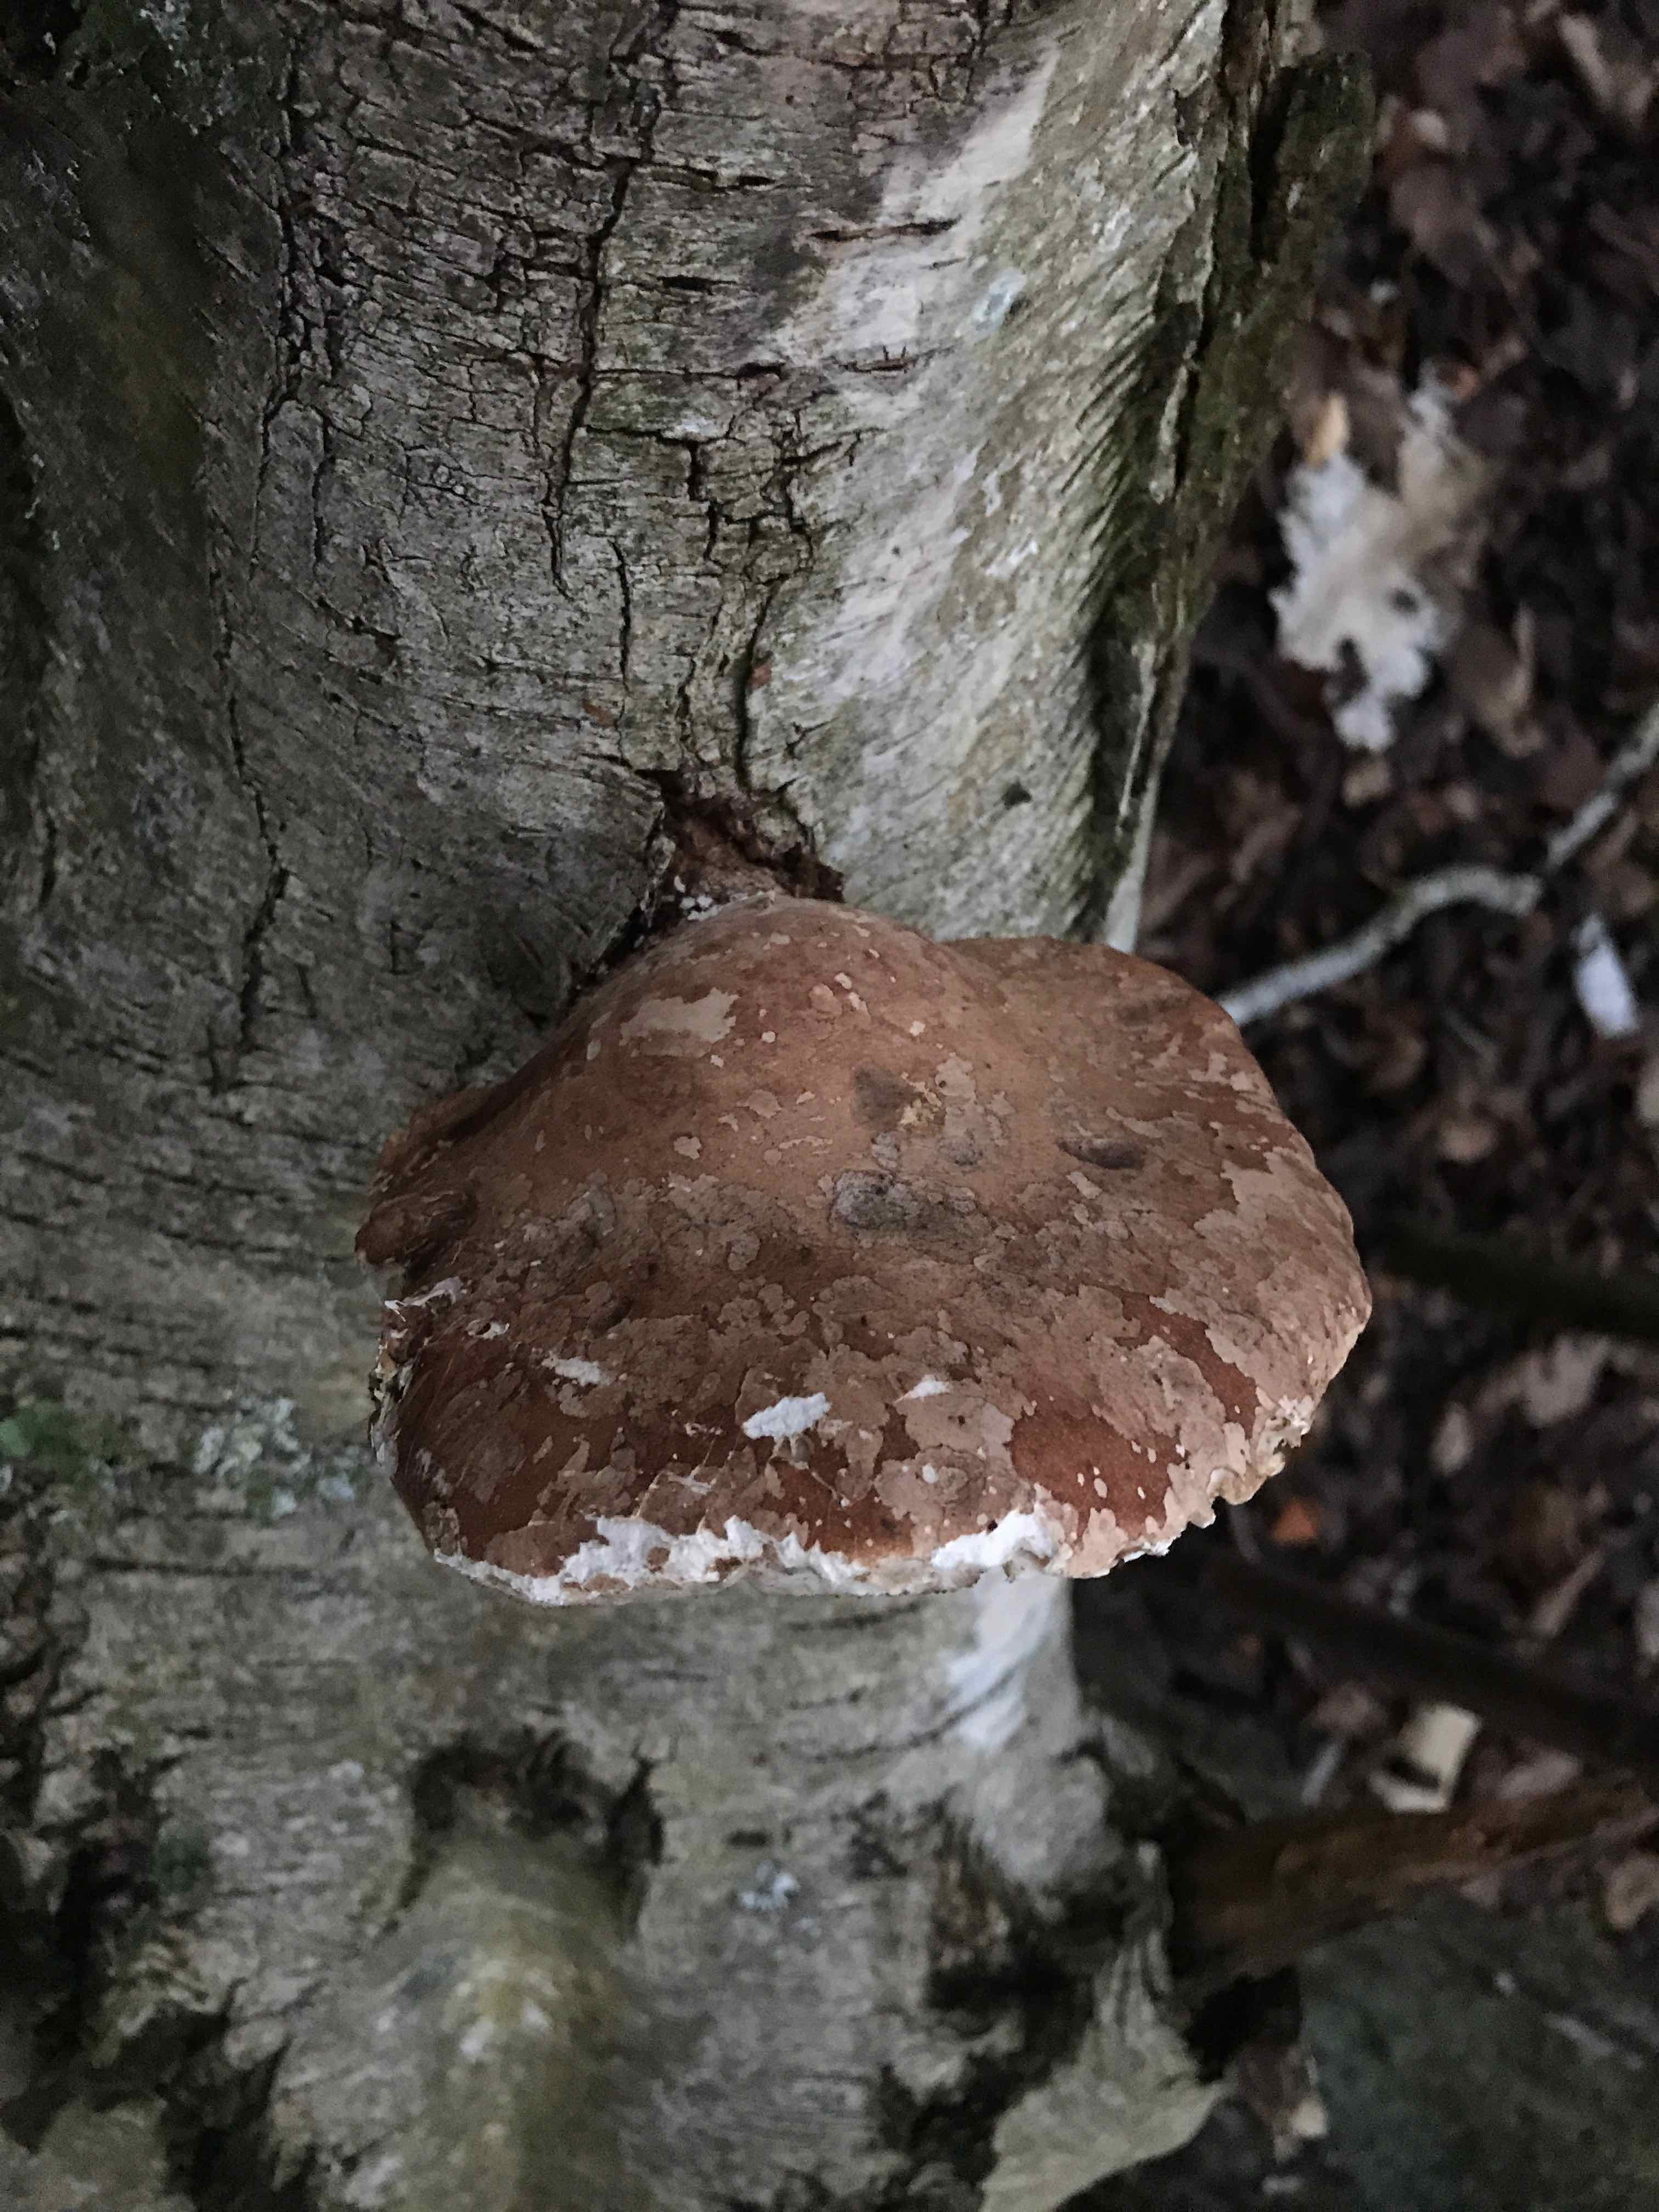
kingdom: Fungi
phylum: Basidiomycota
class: Agaricomycetes
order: Polyporales
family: Fomitopsidaceae
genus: Fomitopsis
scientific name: Fomitopsis betulina
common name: birkeporesvamp
